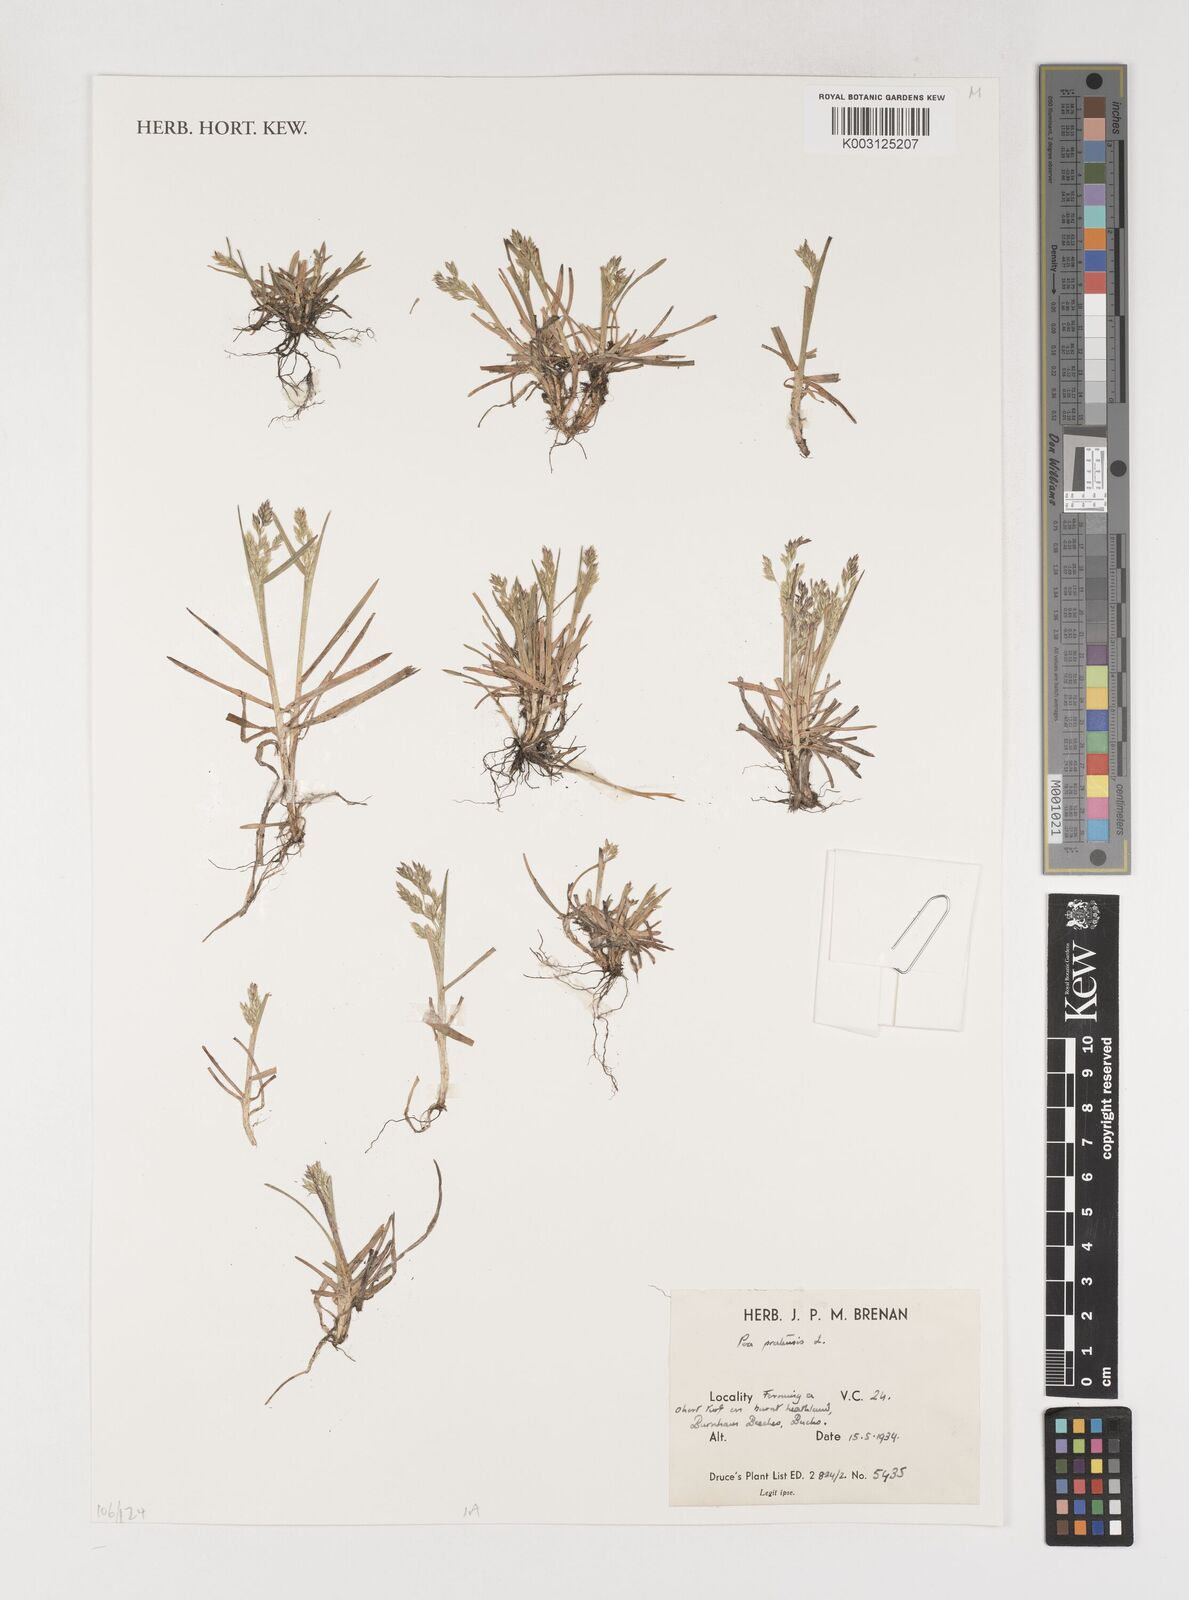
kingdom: Plantae
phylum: Tracheophyta
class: Liliopsida
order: Poales
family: Poaceae
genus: Poa
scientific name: Poa pratensis
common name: Kentucky bluegrass
